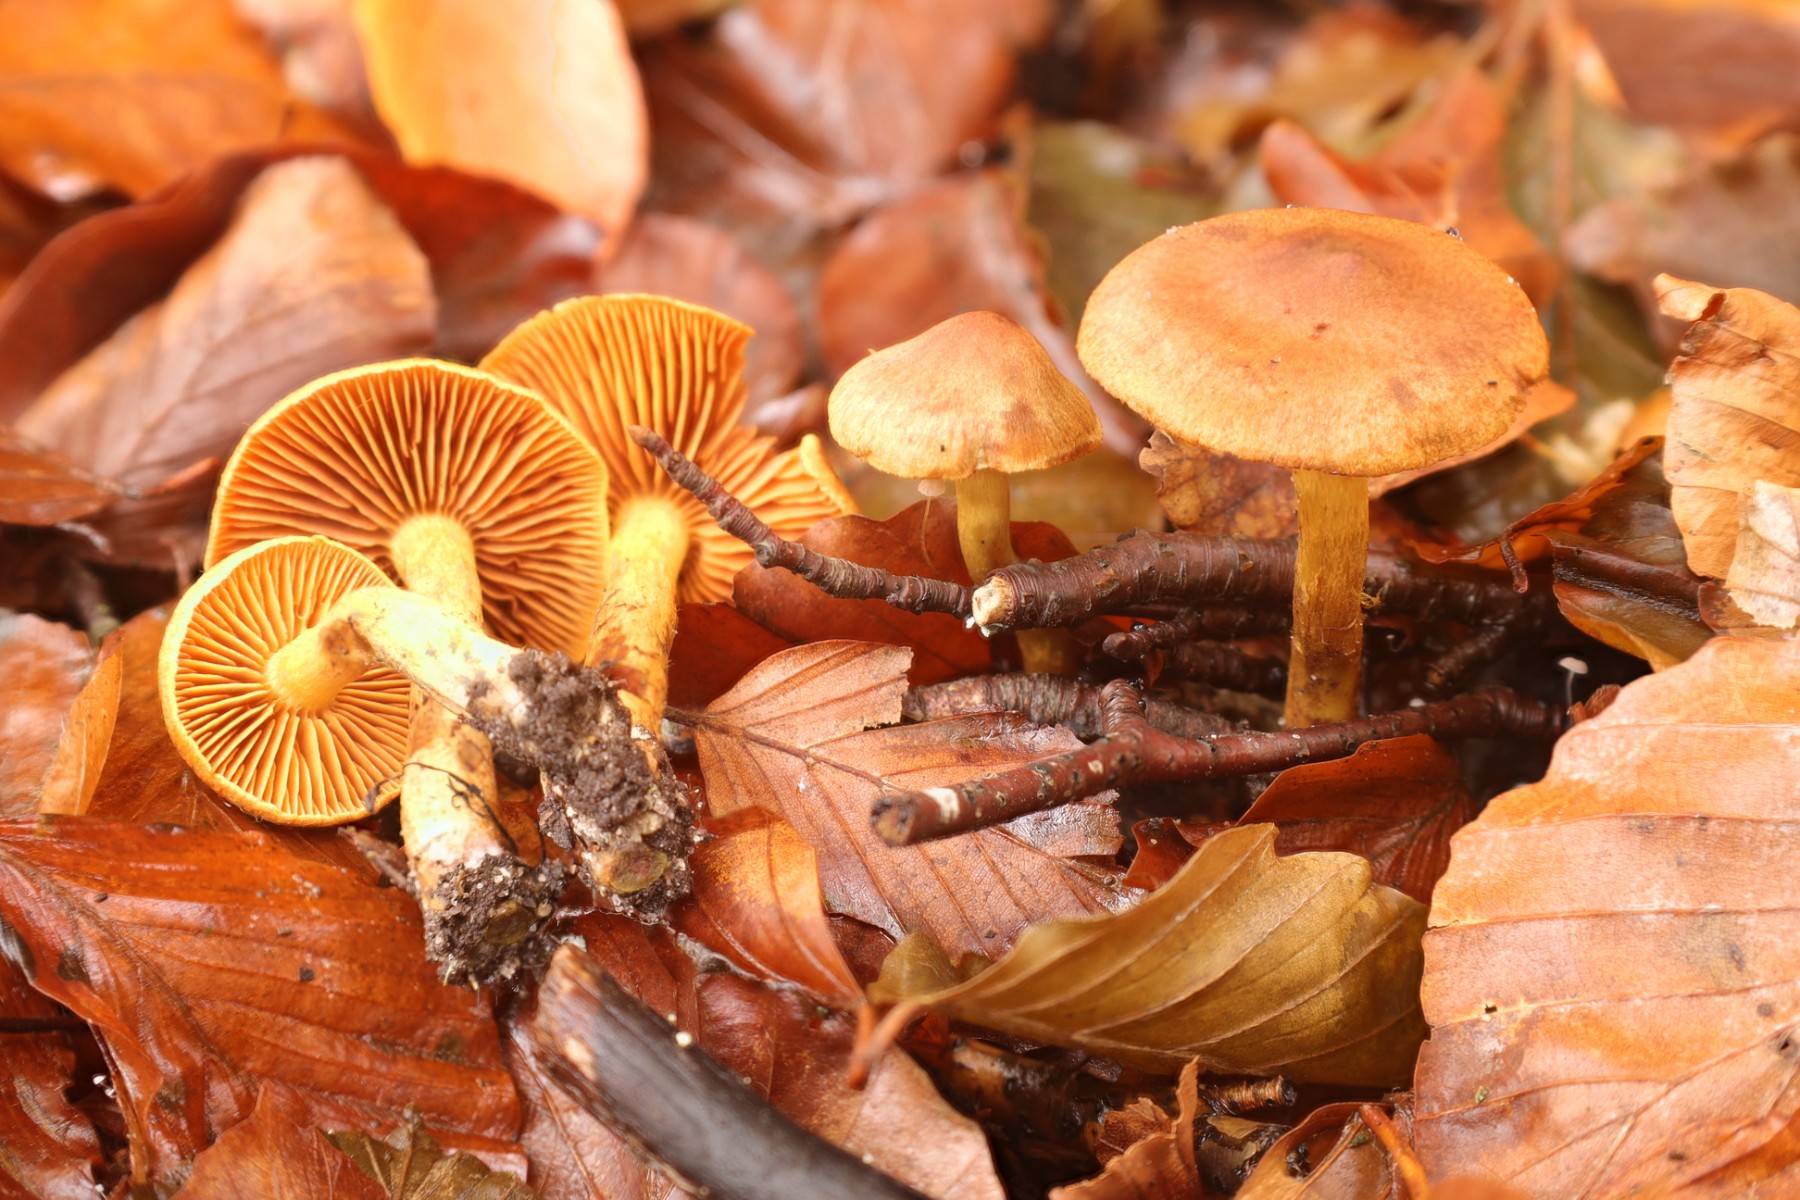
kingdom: Fungi
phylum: Basidiomycota
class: Agaricomycetes
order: Agaricales
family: Cortinariaceae
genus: Cortinarius
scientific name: Cortinarius
